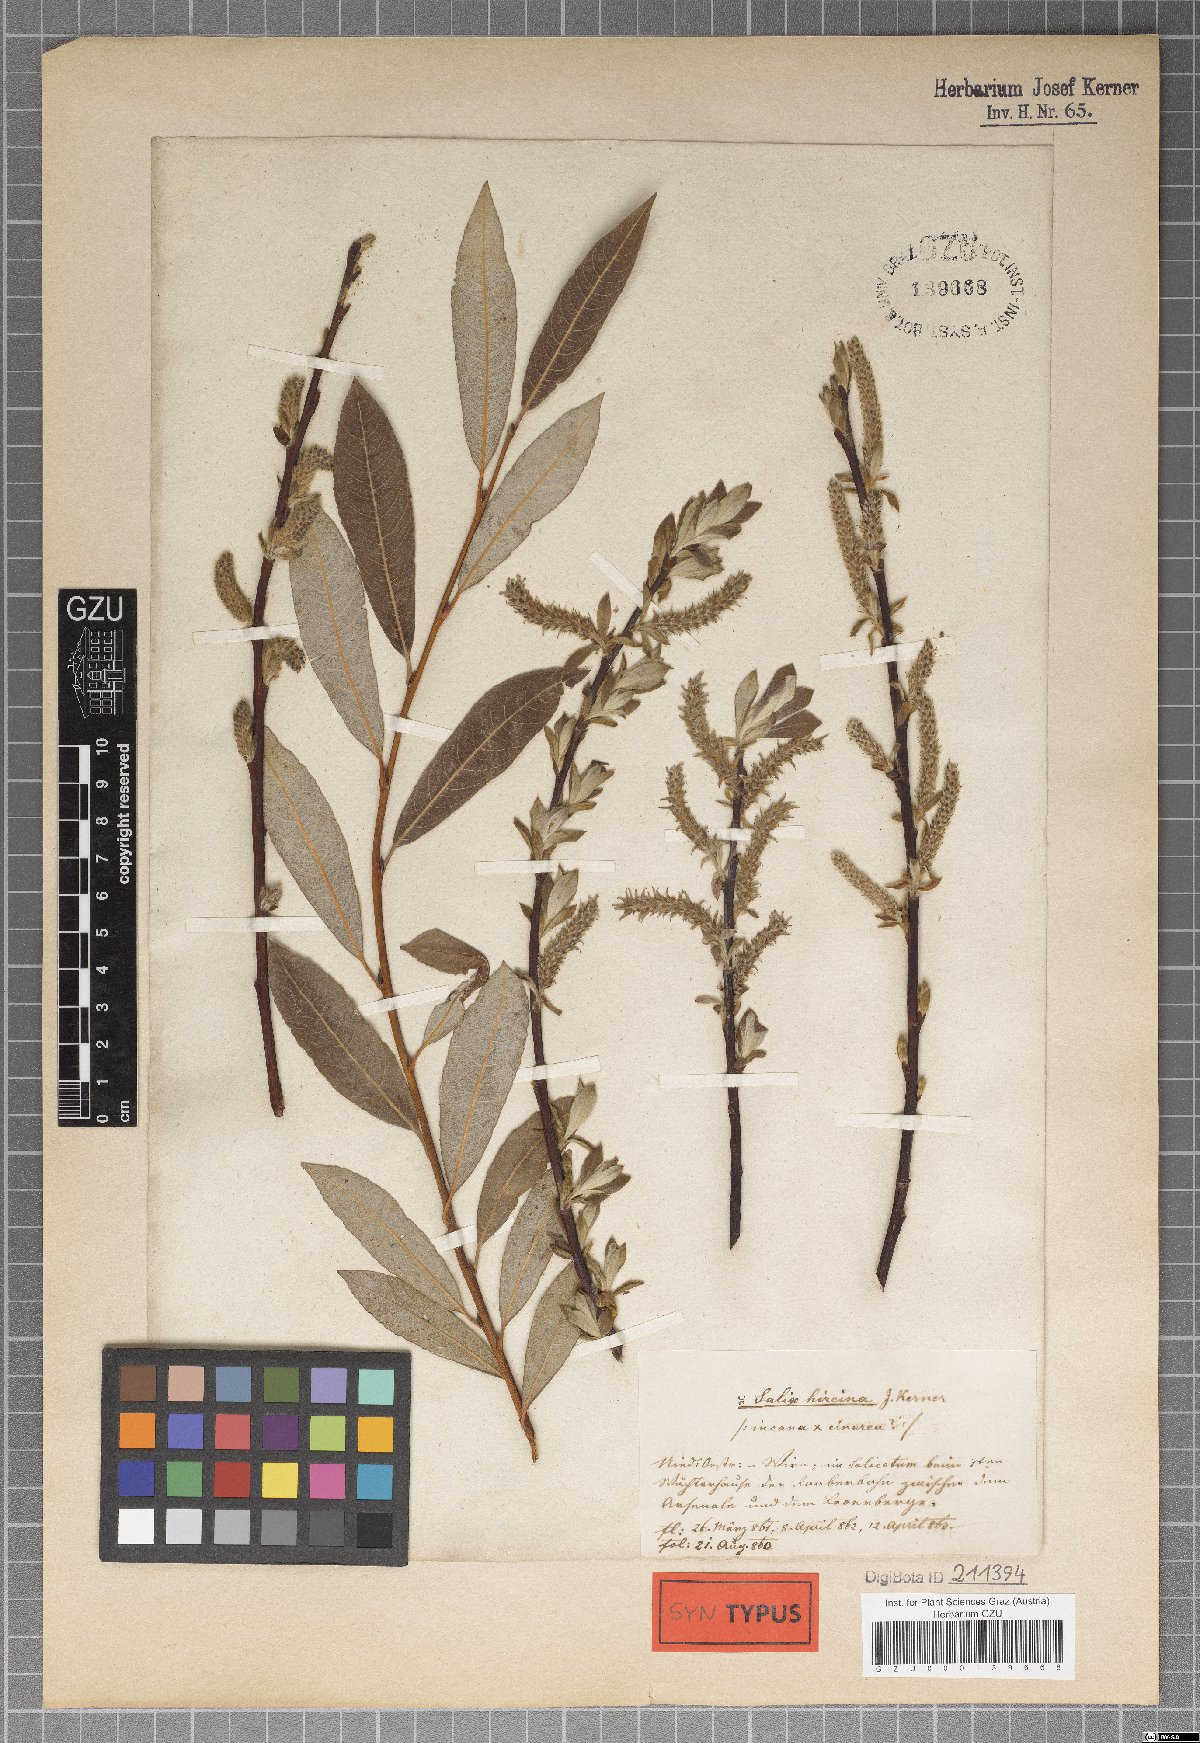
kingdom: Plantae
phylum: Tracheophyta
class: Magnoliopsida
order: Malpighiales
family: Salicaceae
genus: Salix
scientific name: Salix eleagnos
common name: Elaeagnus willow
